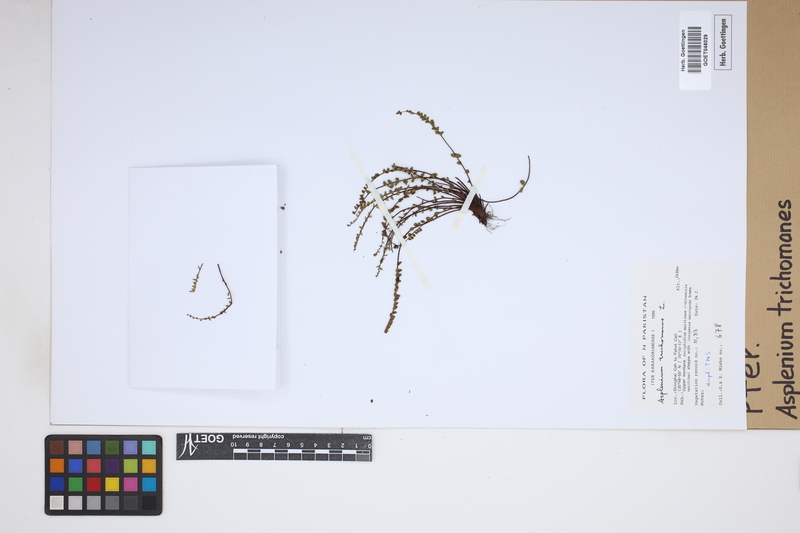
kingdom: Plantae
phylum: Tracheophyta
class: Polypodiopsida
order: Polypodiales
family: Aspleniaceae
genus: Asplenium
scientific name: Asplenium trichomanes
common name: Maidenhair spleenwort
